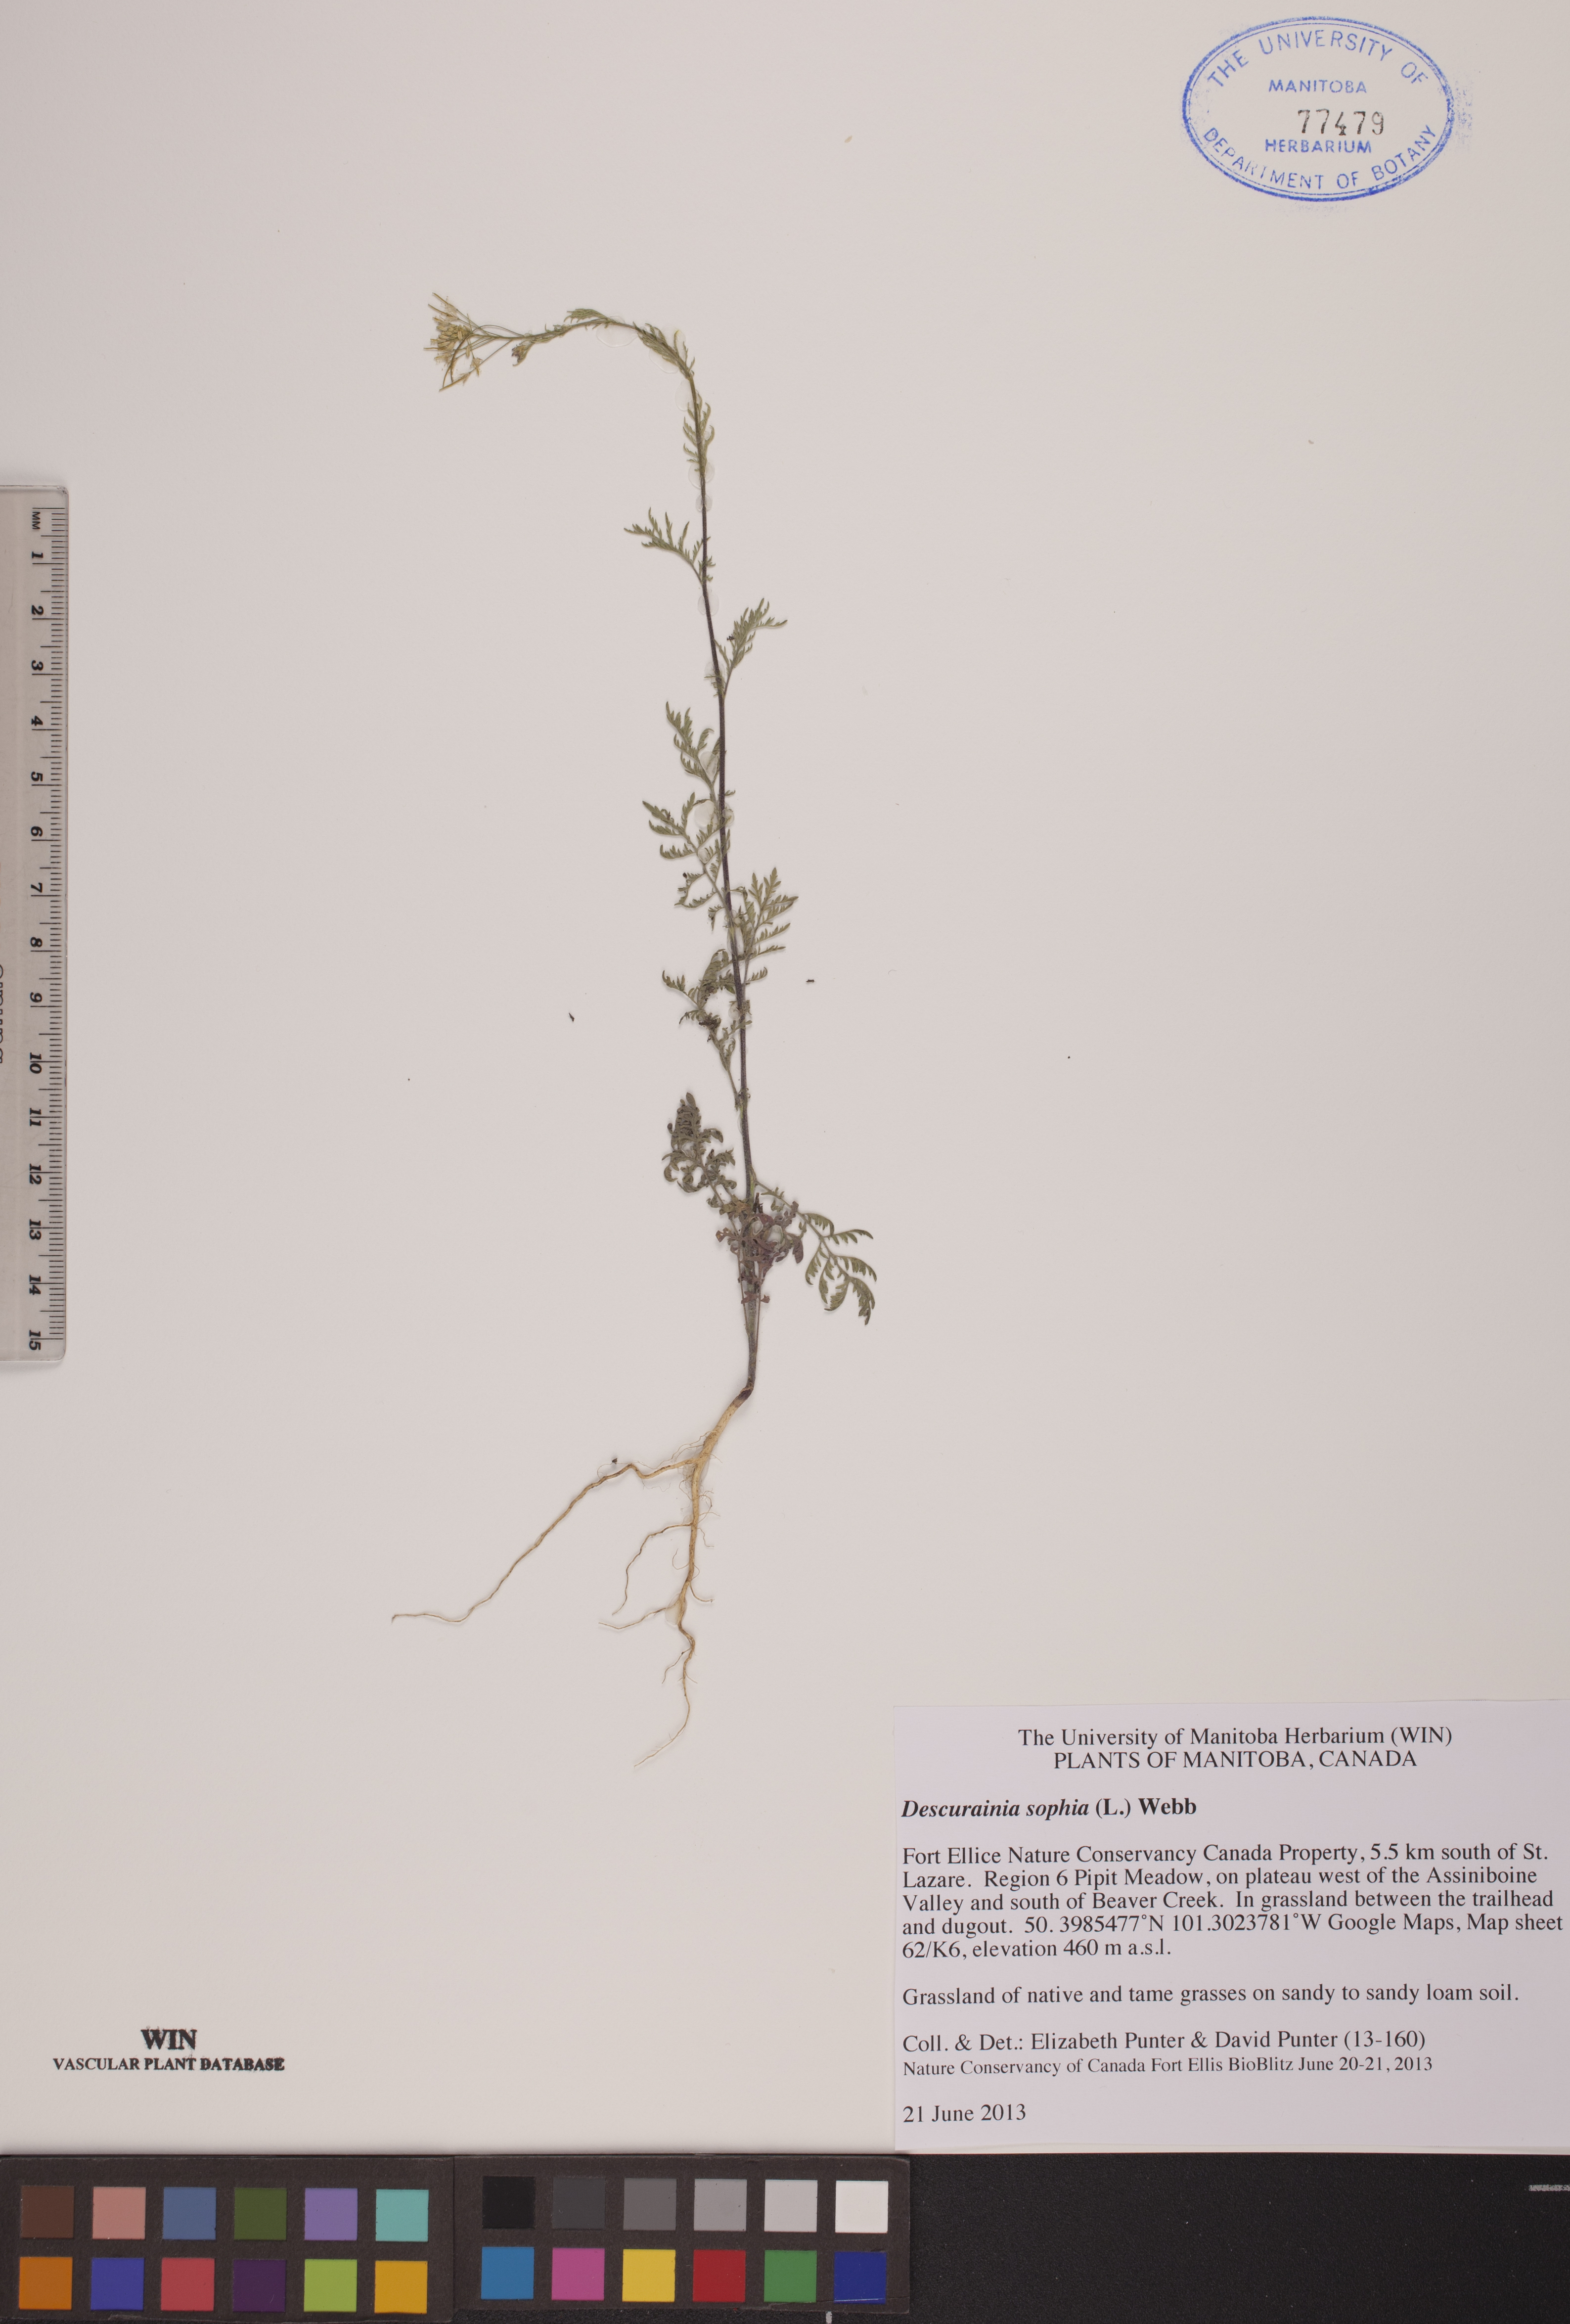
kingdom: Plantae
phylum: Tracheophyta
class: Magnoliopsida
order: Brassicales
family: Brassicaceae
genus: Descurainia
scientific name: Descurainia sophia
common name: Flixweed
